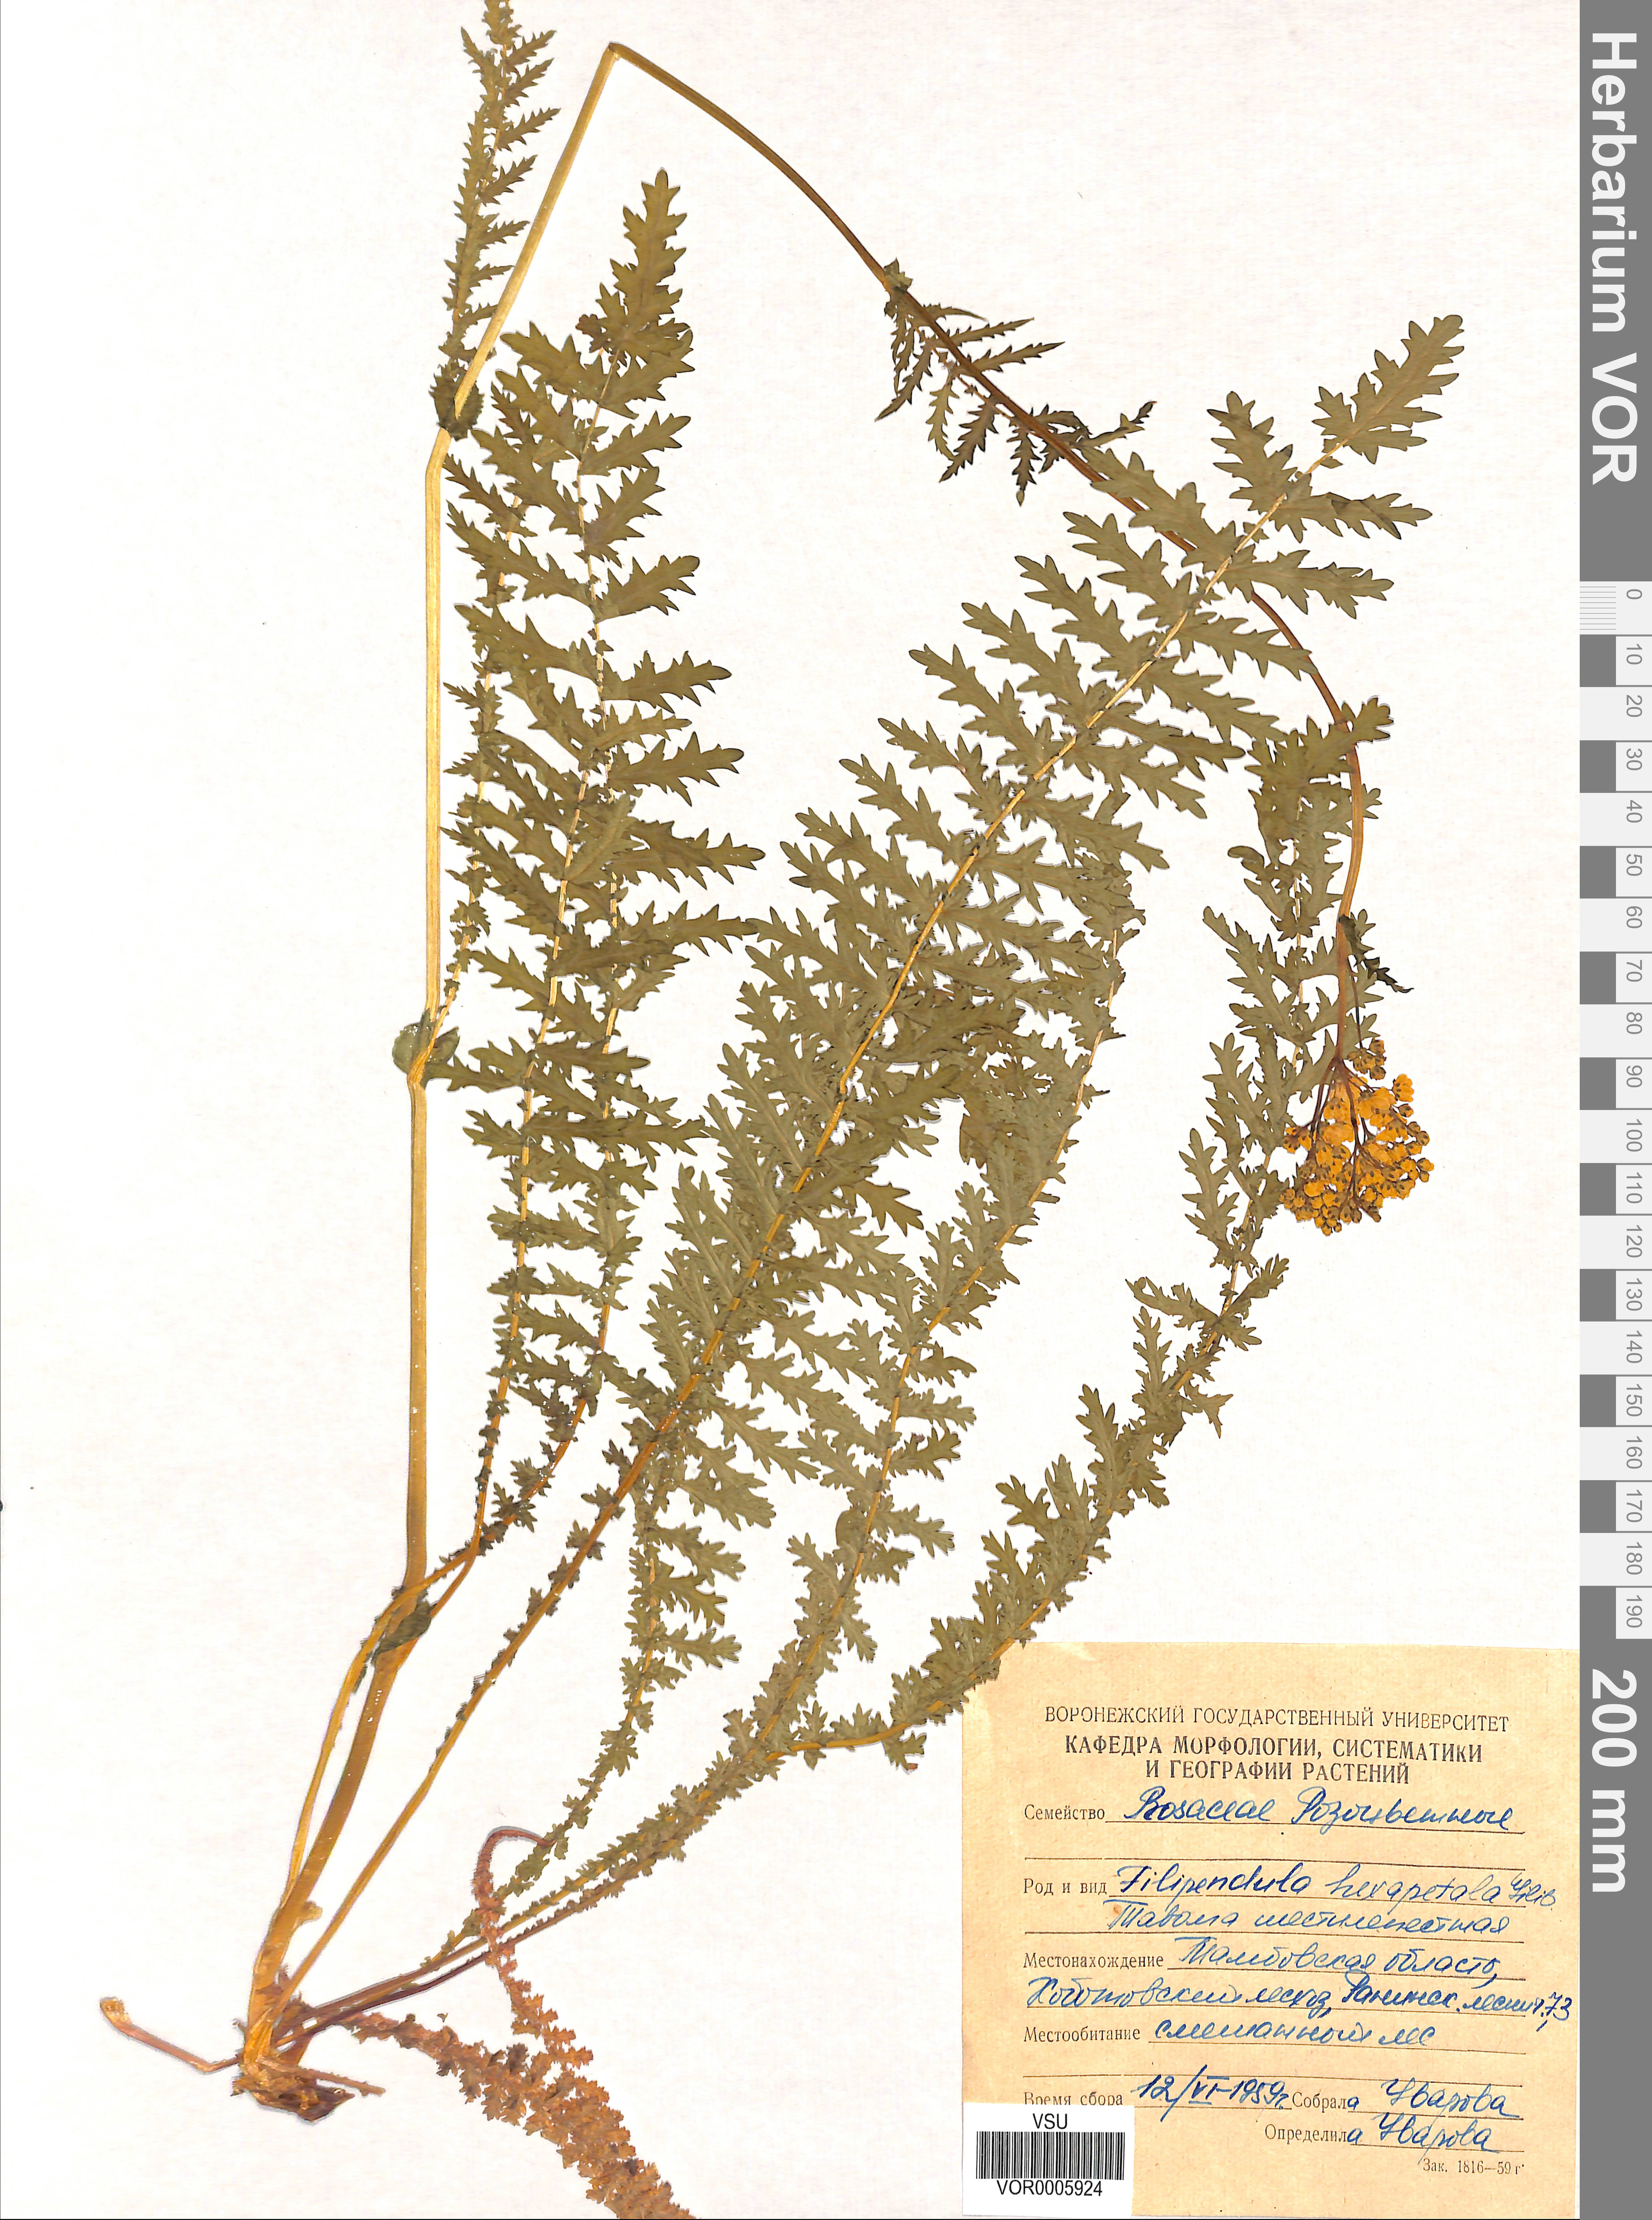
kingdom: Plantae
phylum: Tracheophyta
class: Magnoliopsida
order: Rosales
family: Rosaceae
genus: Filipendula
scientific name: Filipendula vulgaris
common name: Dropwort
